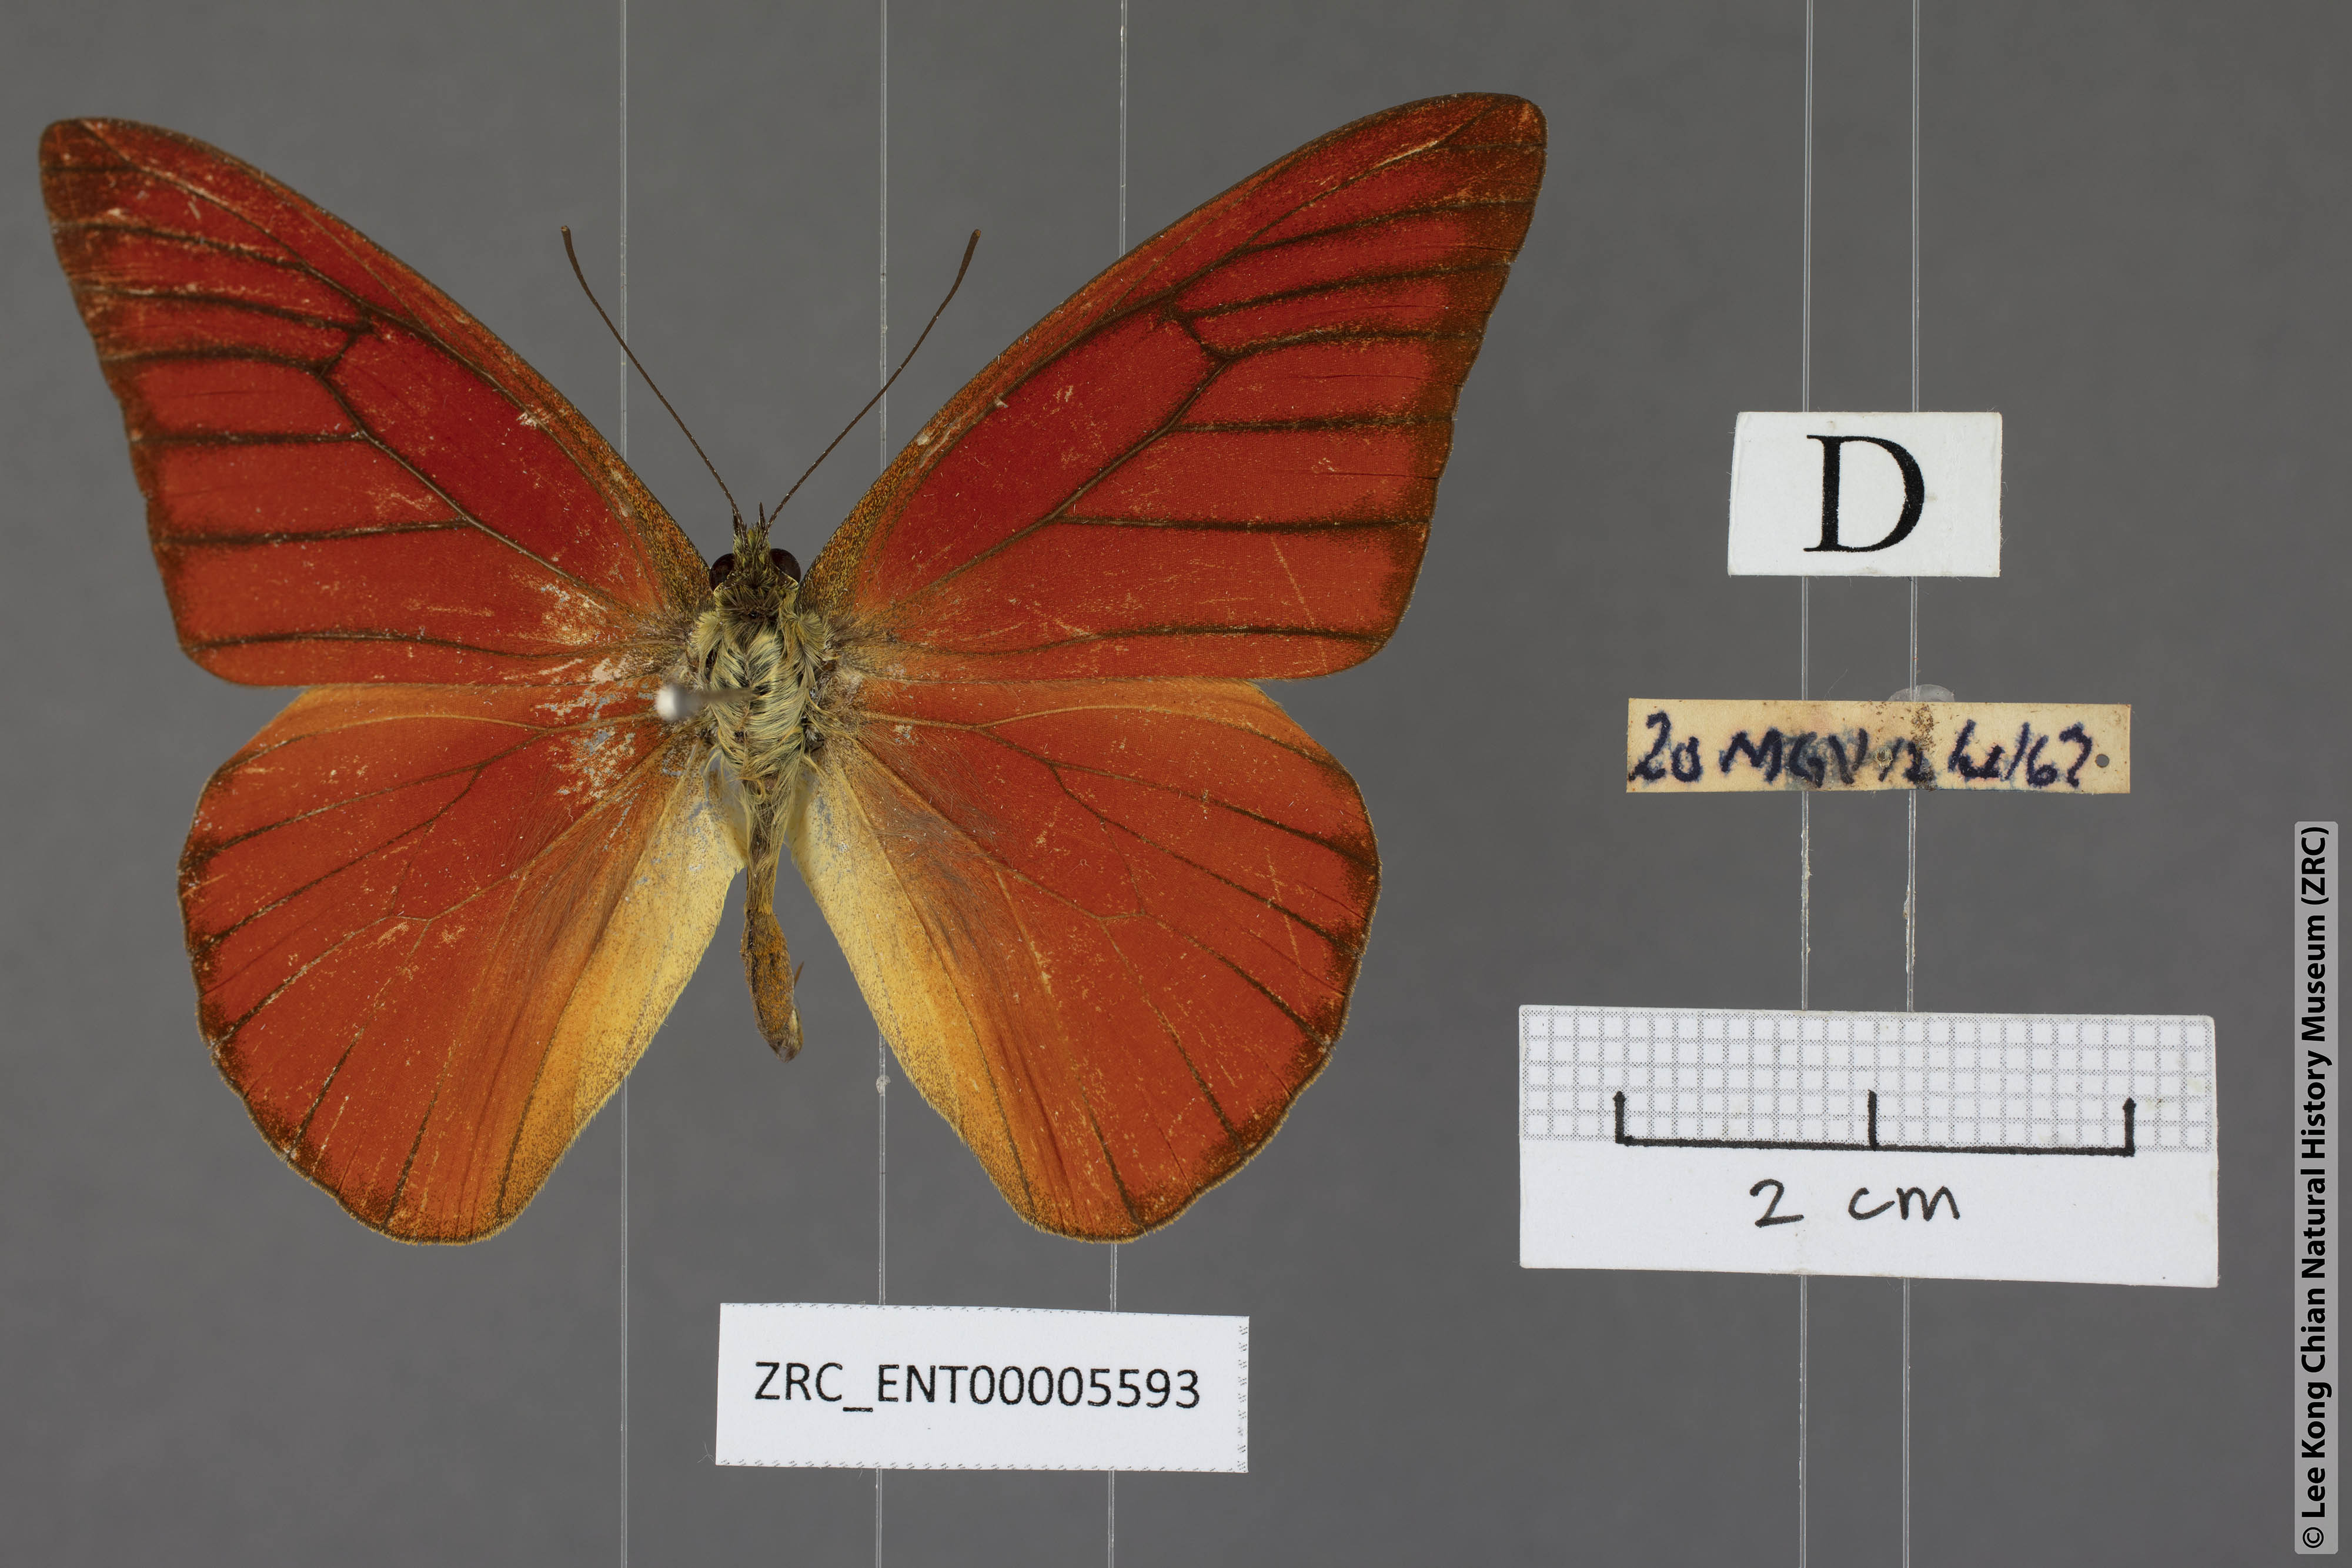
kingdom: Animalia
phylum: Arthropoda
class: Insecta
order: Lepidoptera
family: Pieridae
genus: Appias
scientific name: Appias nero
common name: Orange albatross
